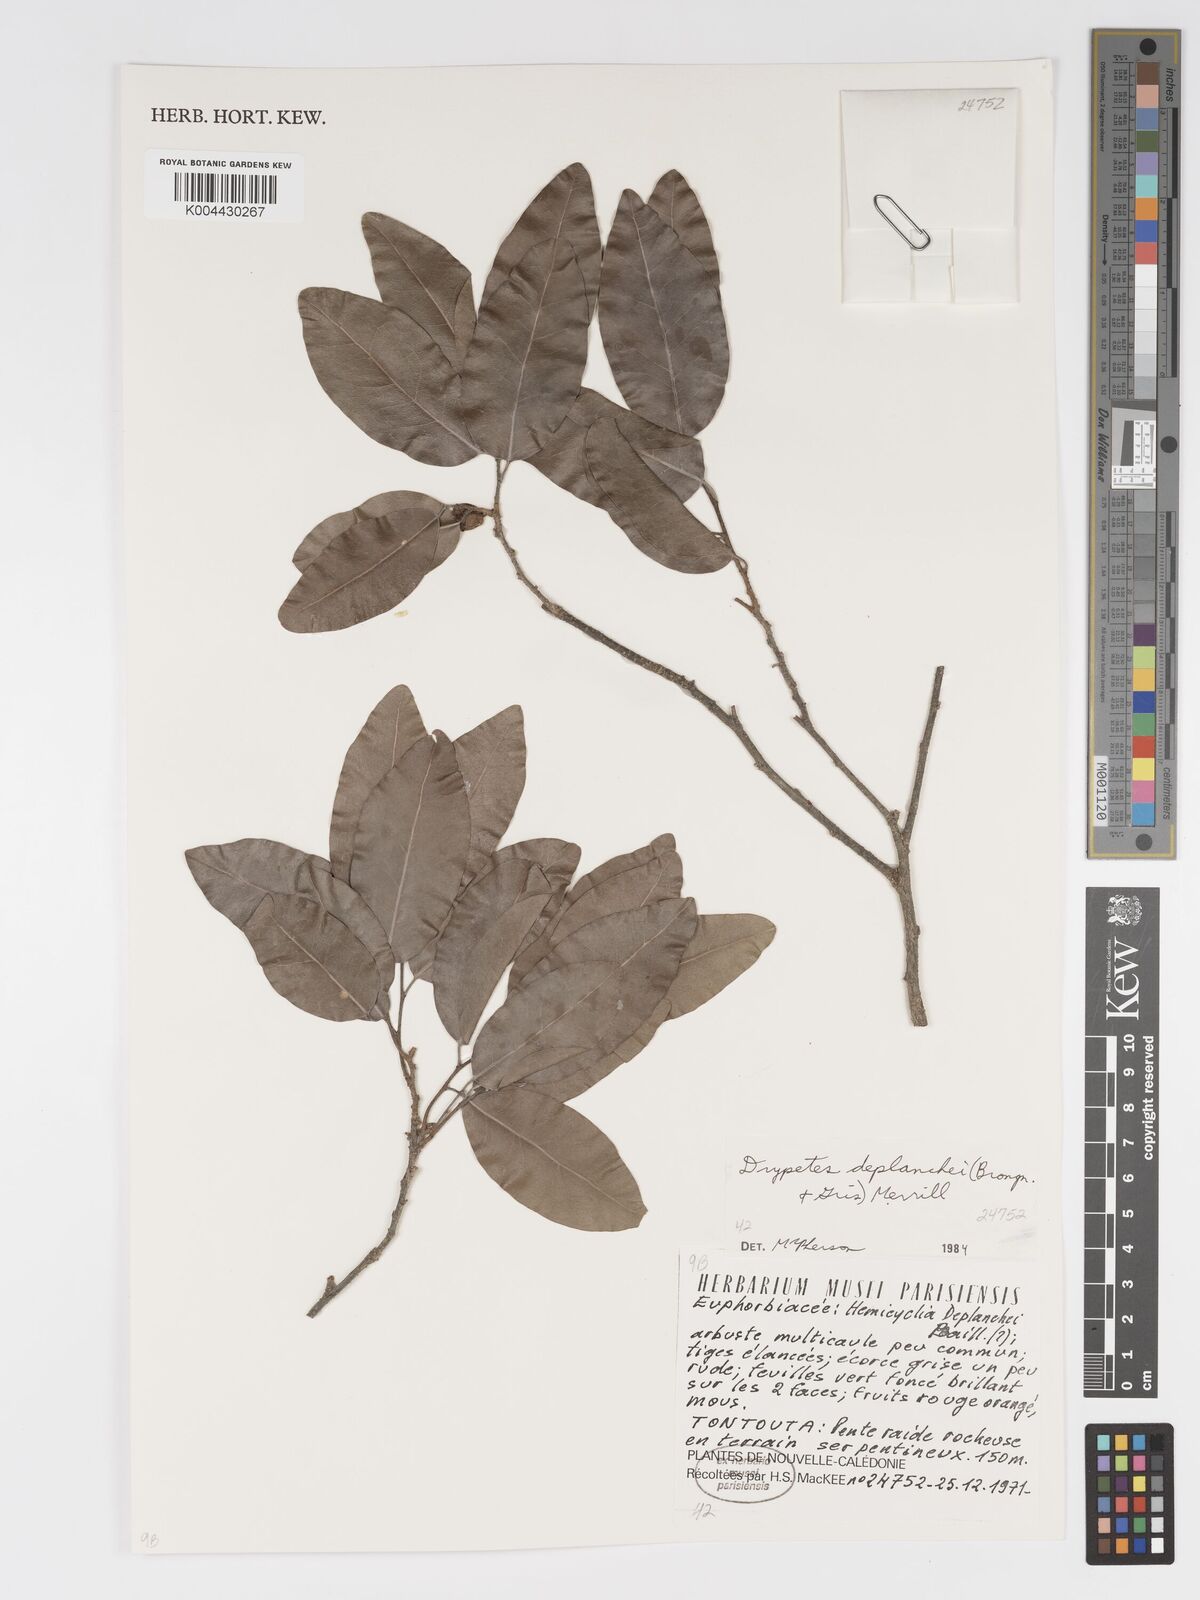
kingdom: Plantae
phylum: Tracheophyta
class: Magnoliopsida
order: Malpighiales
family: Putranjivaceae
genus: Drypetes
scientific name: Drypetes deplanchei
